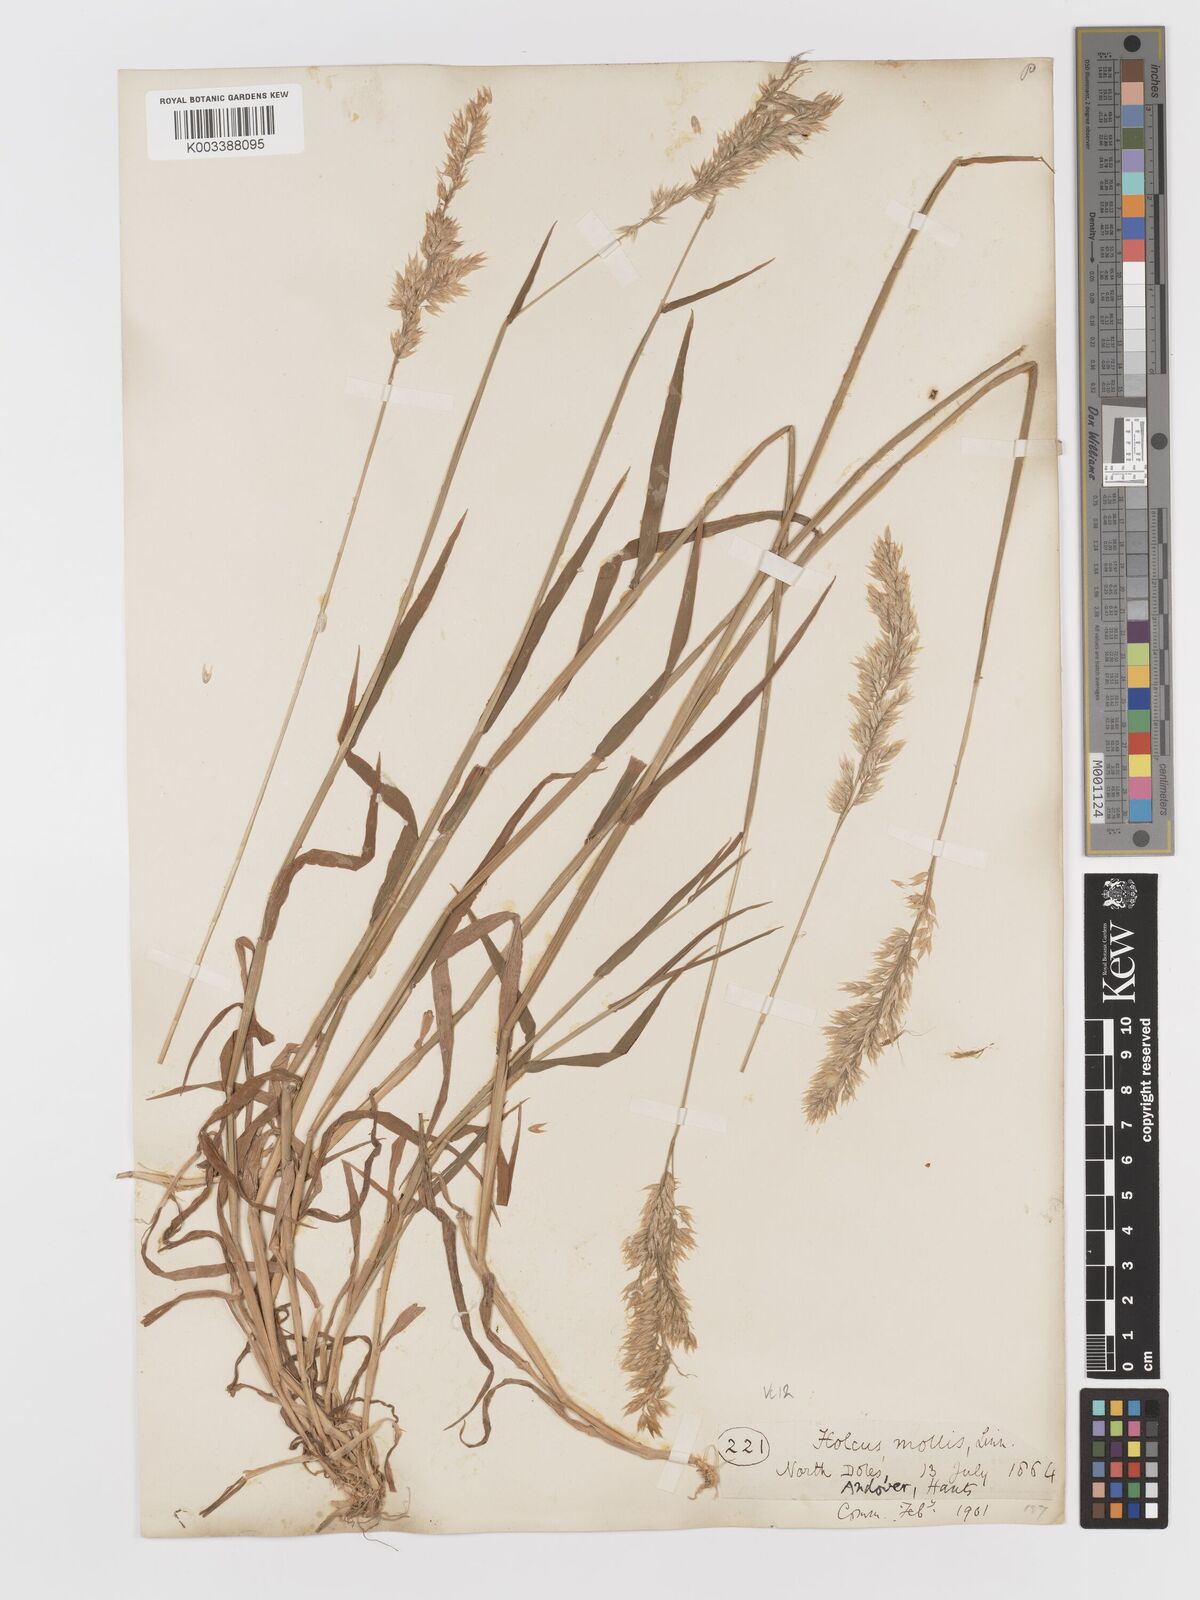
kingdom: Plantae
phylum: Tracheophyta
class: Liliopsida
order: Poales
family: Poaceae
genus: Holcus
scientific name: Holcus mollis
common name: Creeping velvetgrass
